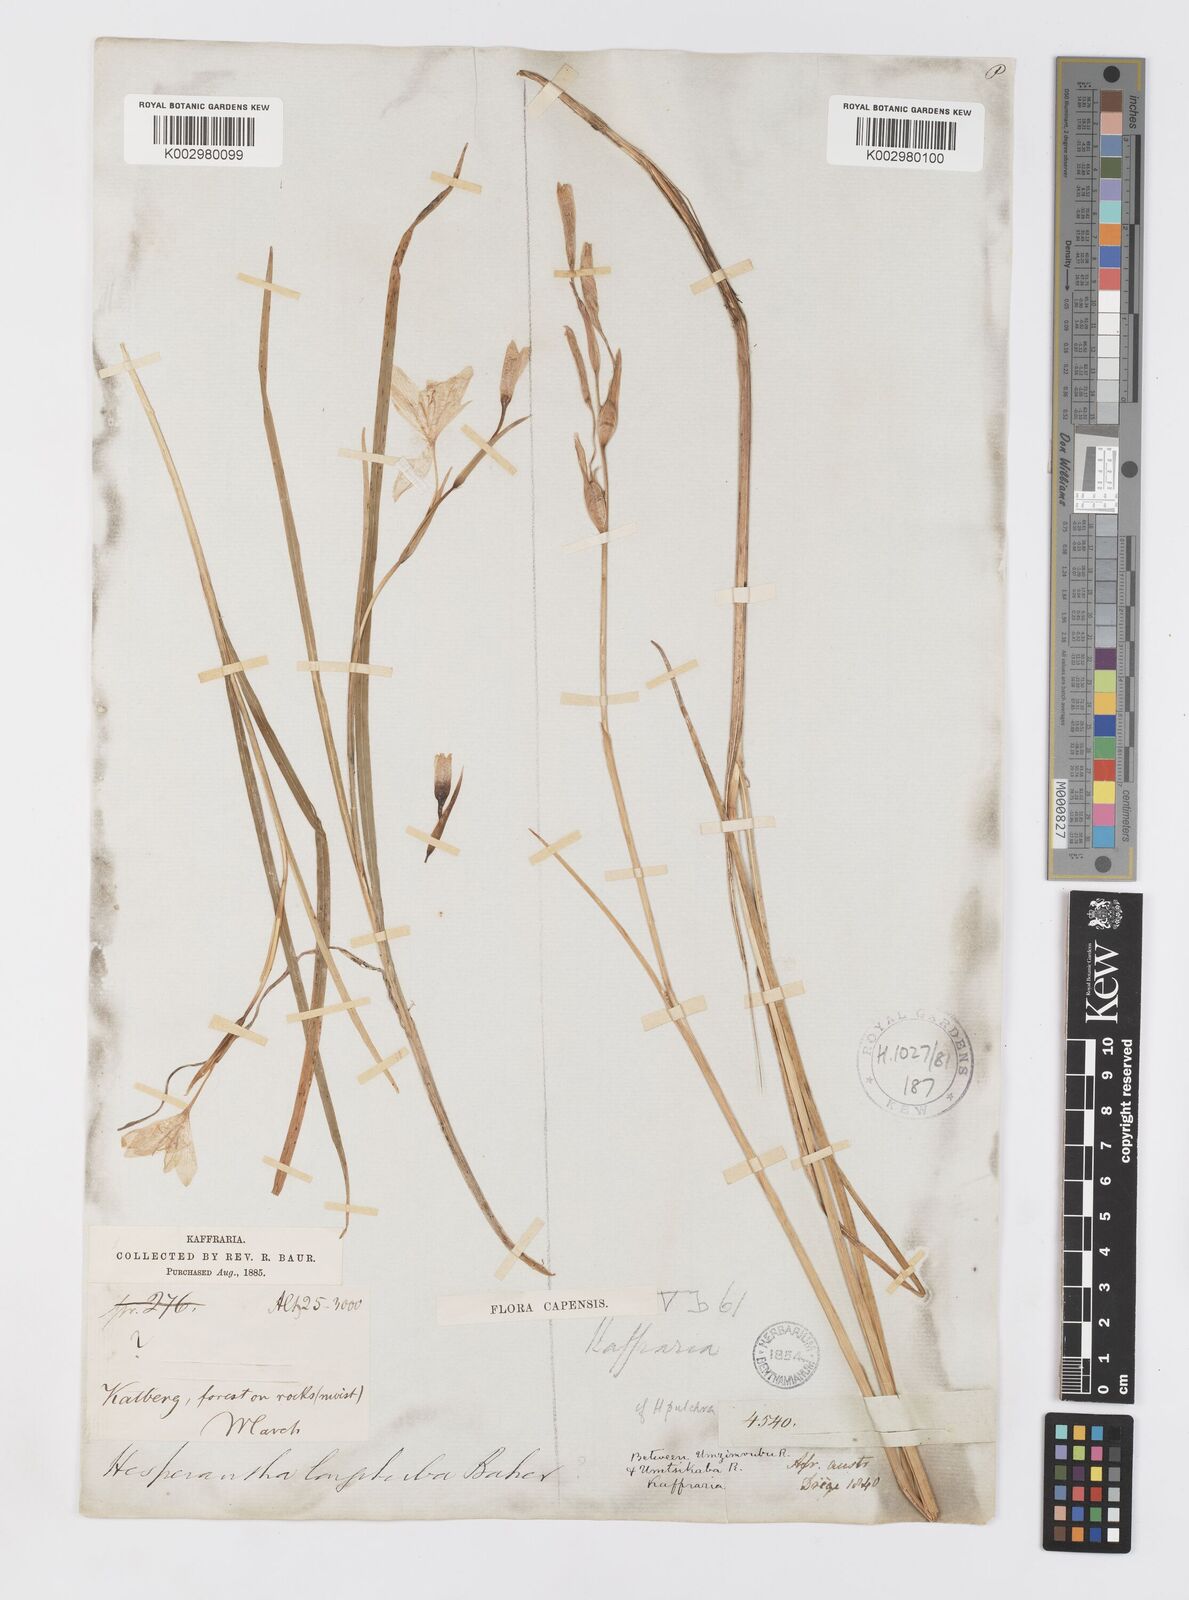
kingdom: Plantae
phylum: Tracheophyta
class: Liliopsida
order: Asparagales
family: Iridaceae
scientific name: Iridaceae
